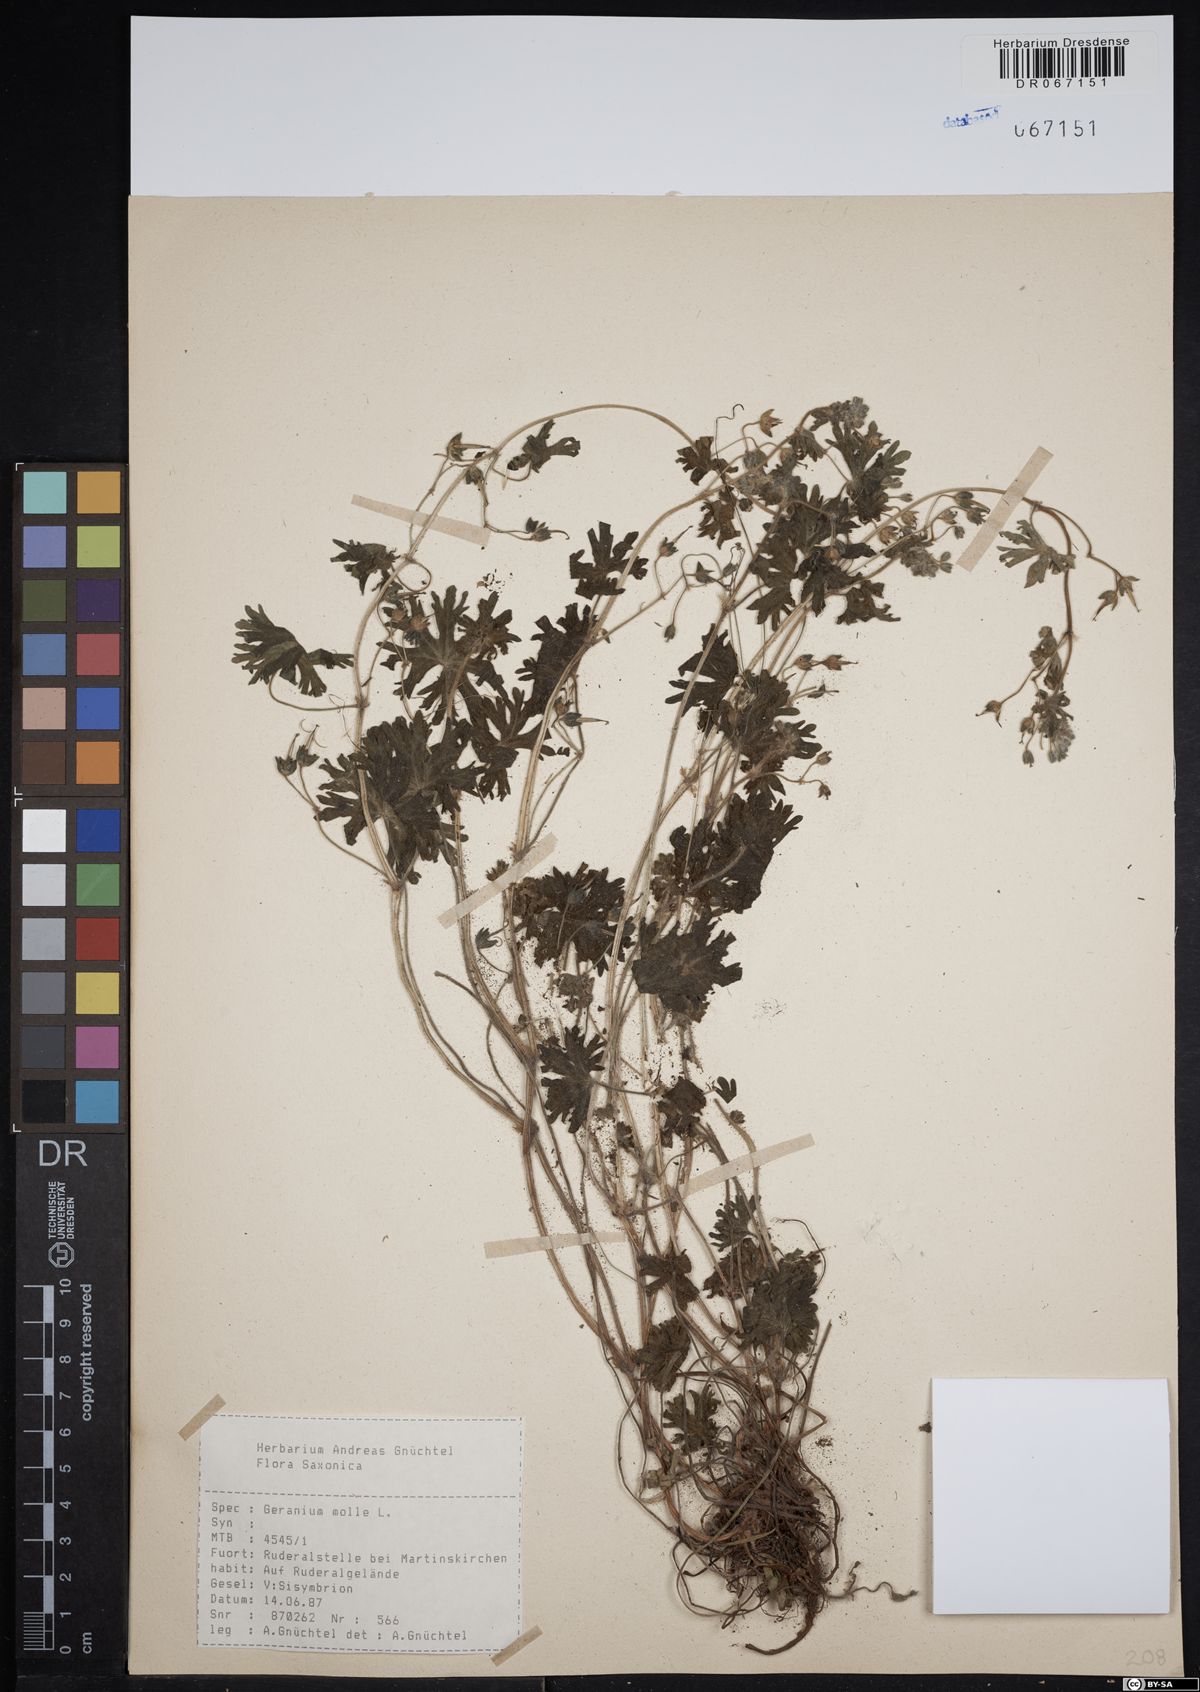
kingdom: Plantae
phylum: Tracheophyta
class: Magnoliopsida
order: Geraniales
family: Geraniaceae
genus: Geranium
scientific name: Geranium molle
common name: Dove's-foot crane's-bill
